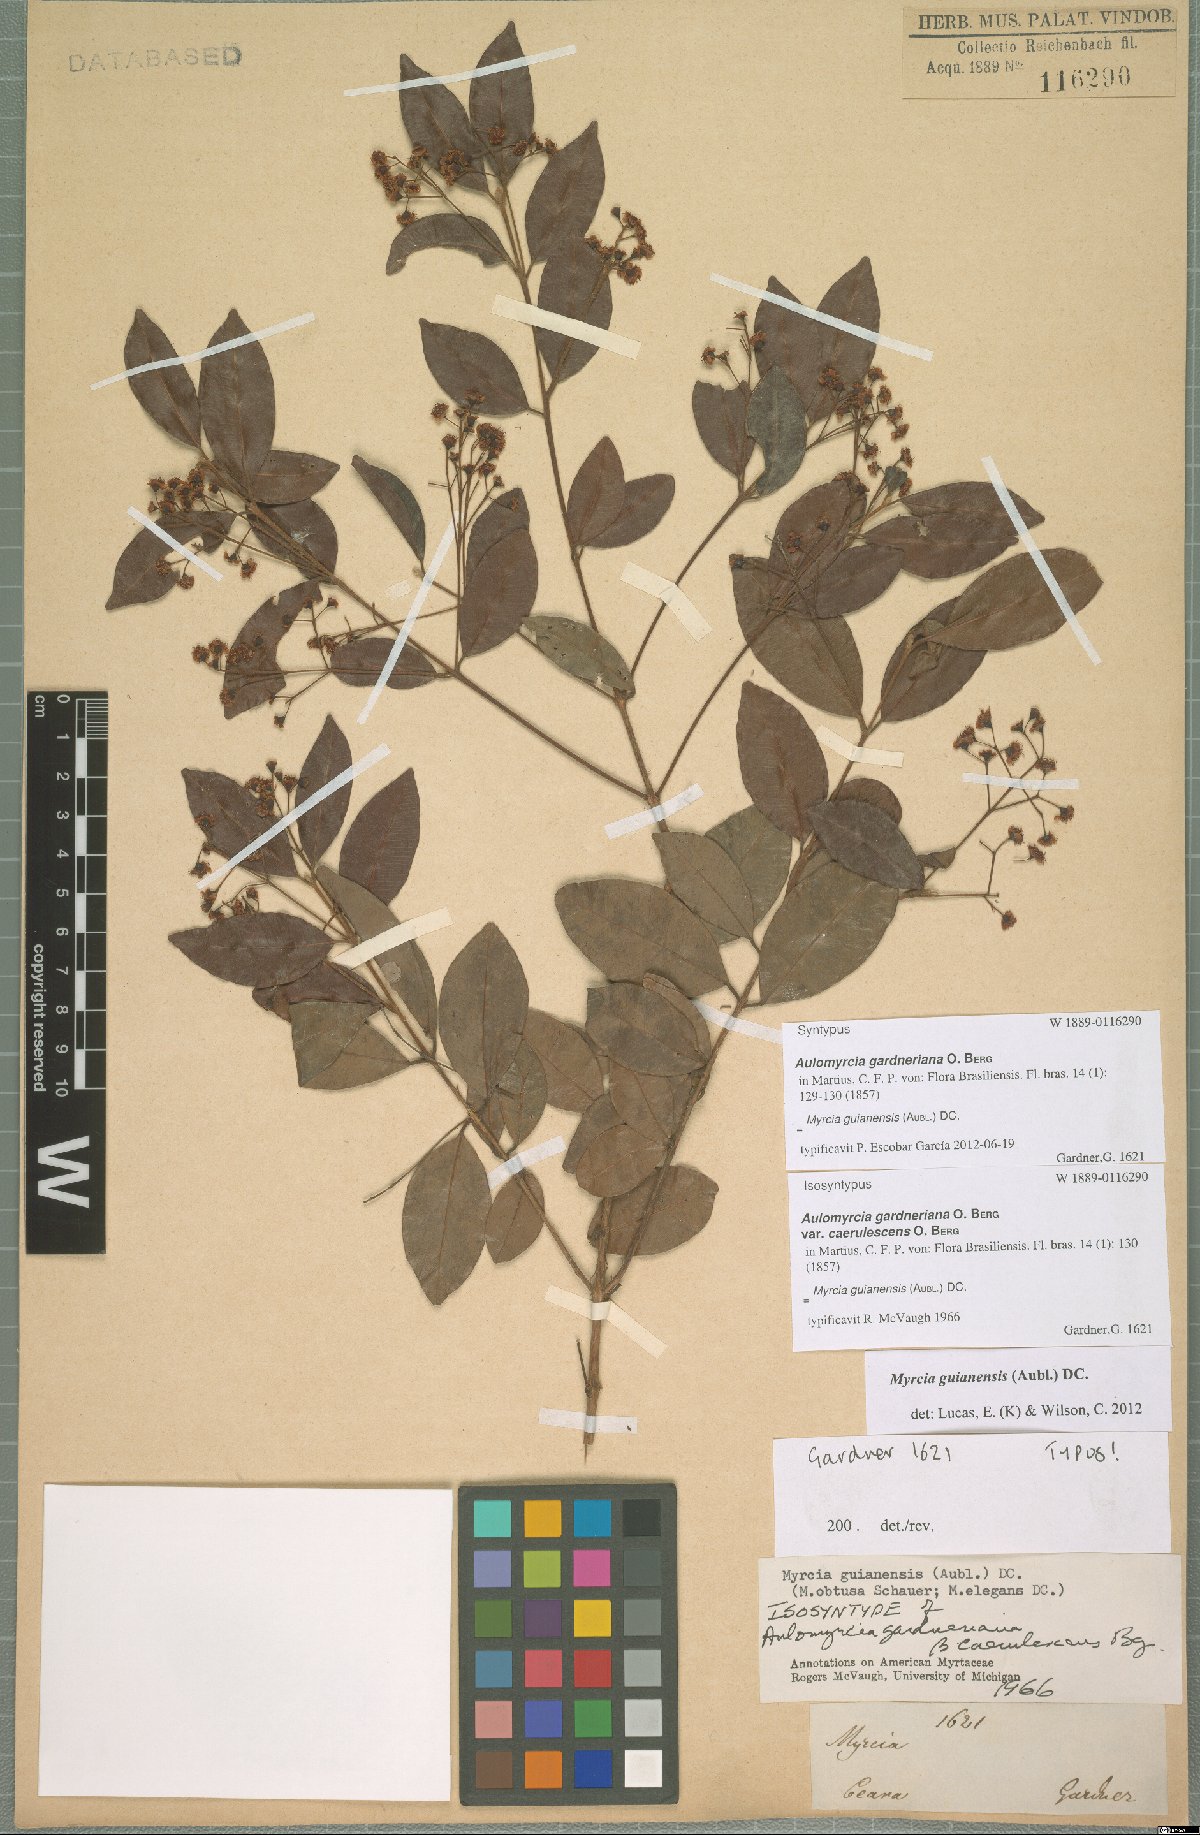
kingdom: Plantae
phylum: Tracheophyta
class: Magnoliopsida
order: Myrtales
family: Myrtaceae
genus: Myrcia
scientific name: Myrcia guianensis
